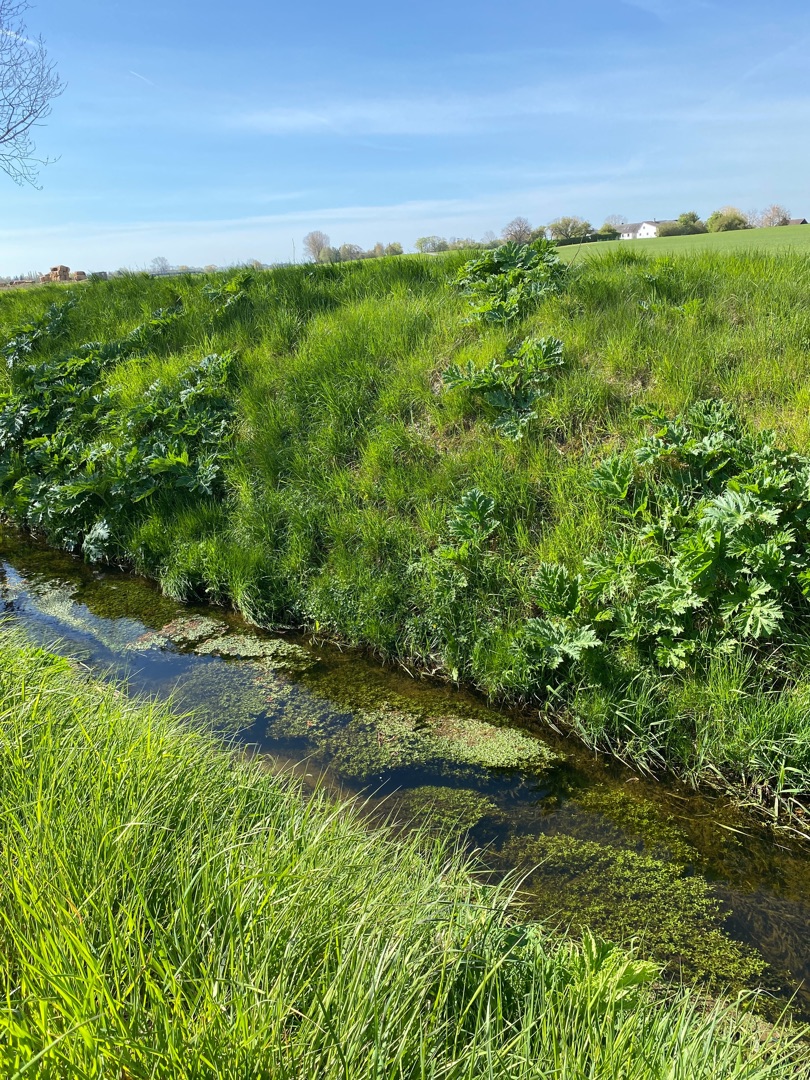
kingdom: Plantae
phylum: Tracheophyta
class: Magnoliopsida
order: Apiales
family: Apiaceae
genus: Heracleum
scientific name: Heracleum mantegazzianum
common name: Kæmpe-bjørneklo
